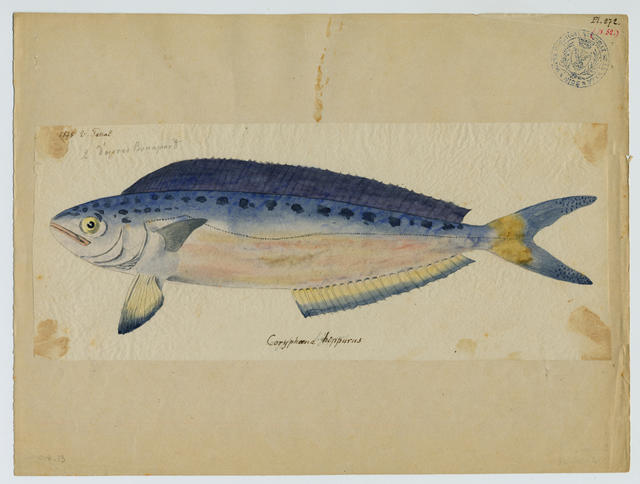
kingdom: Animalia
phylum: Chordata
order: Perciformes
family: Coryphaenidae
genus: Coryphaena
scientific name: Coryphaena hippurus
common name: Dolphin
